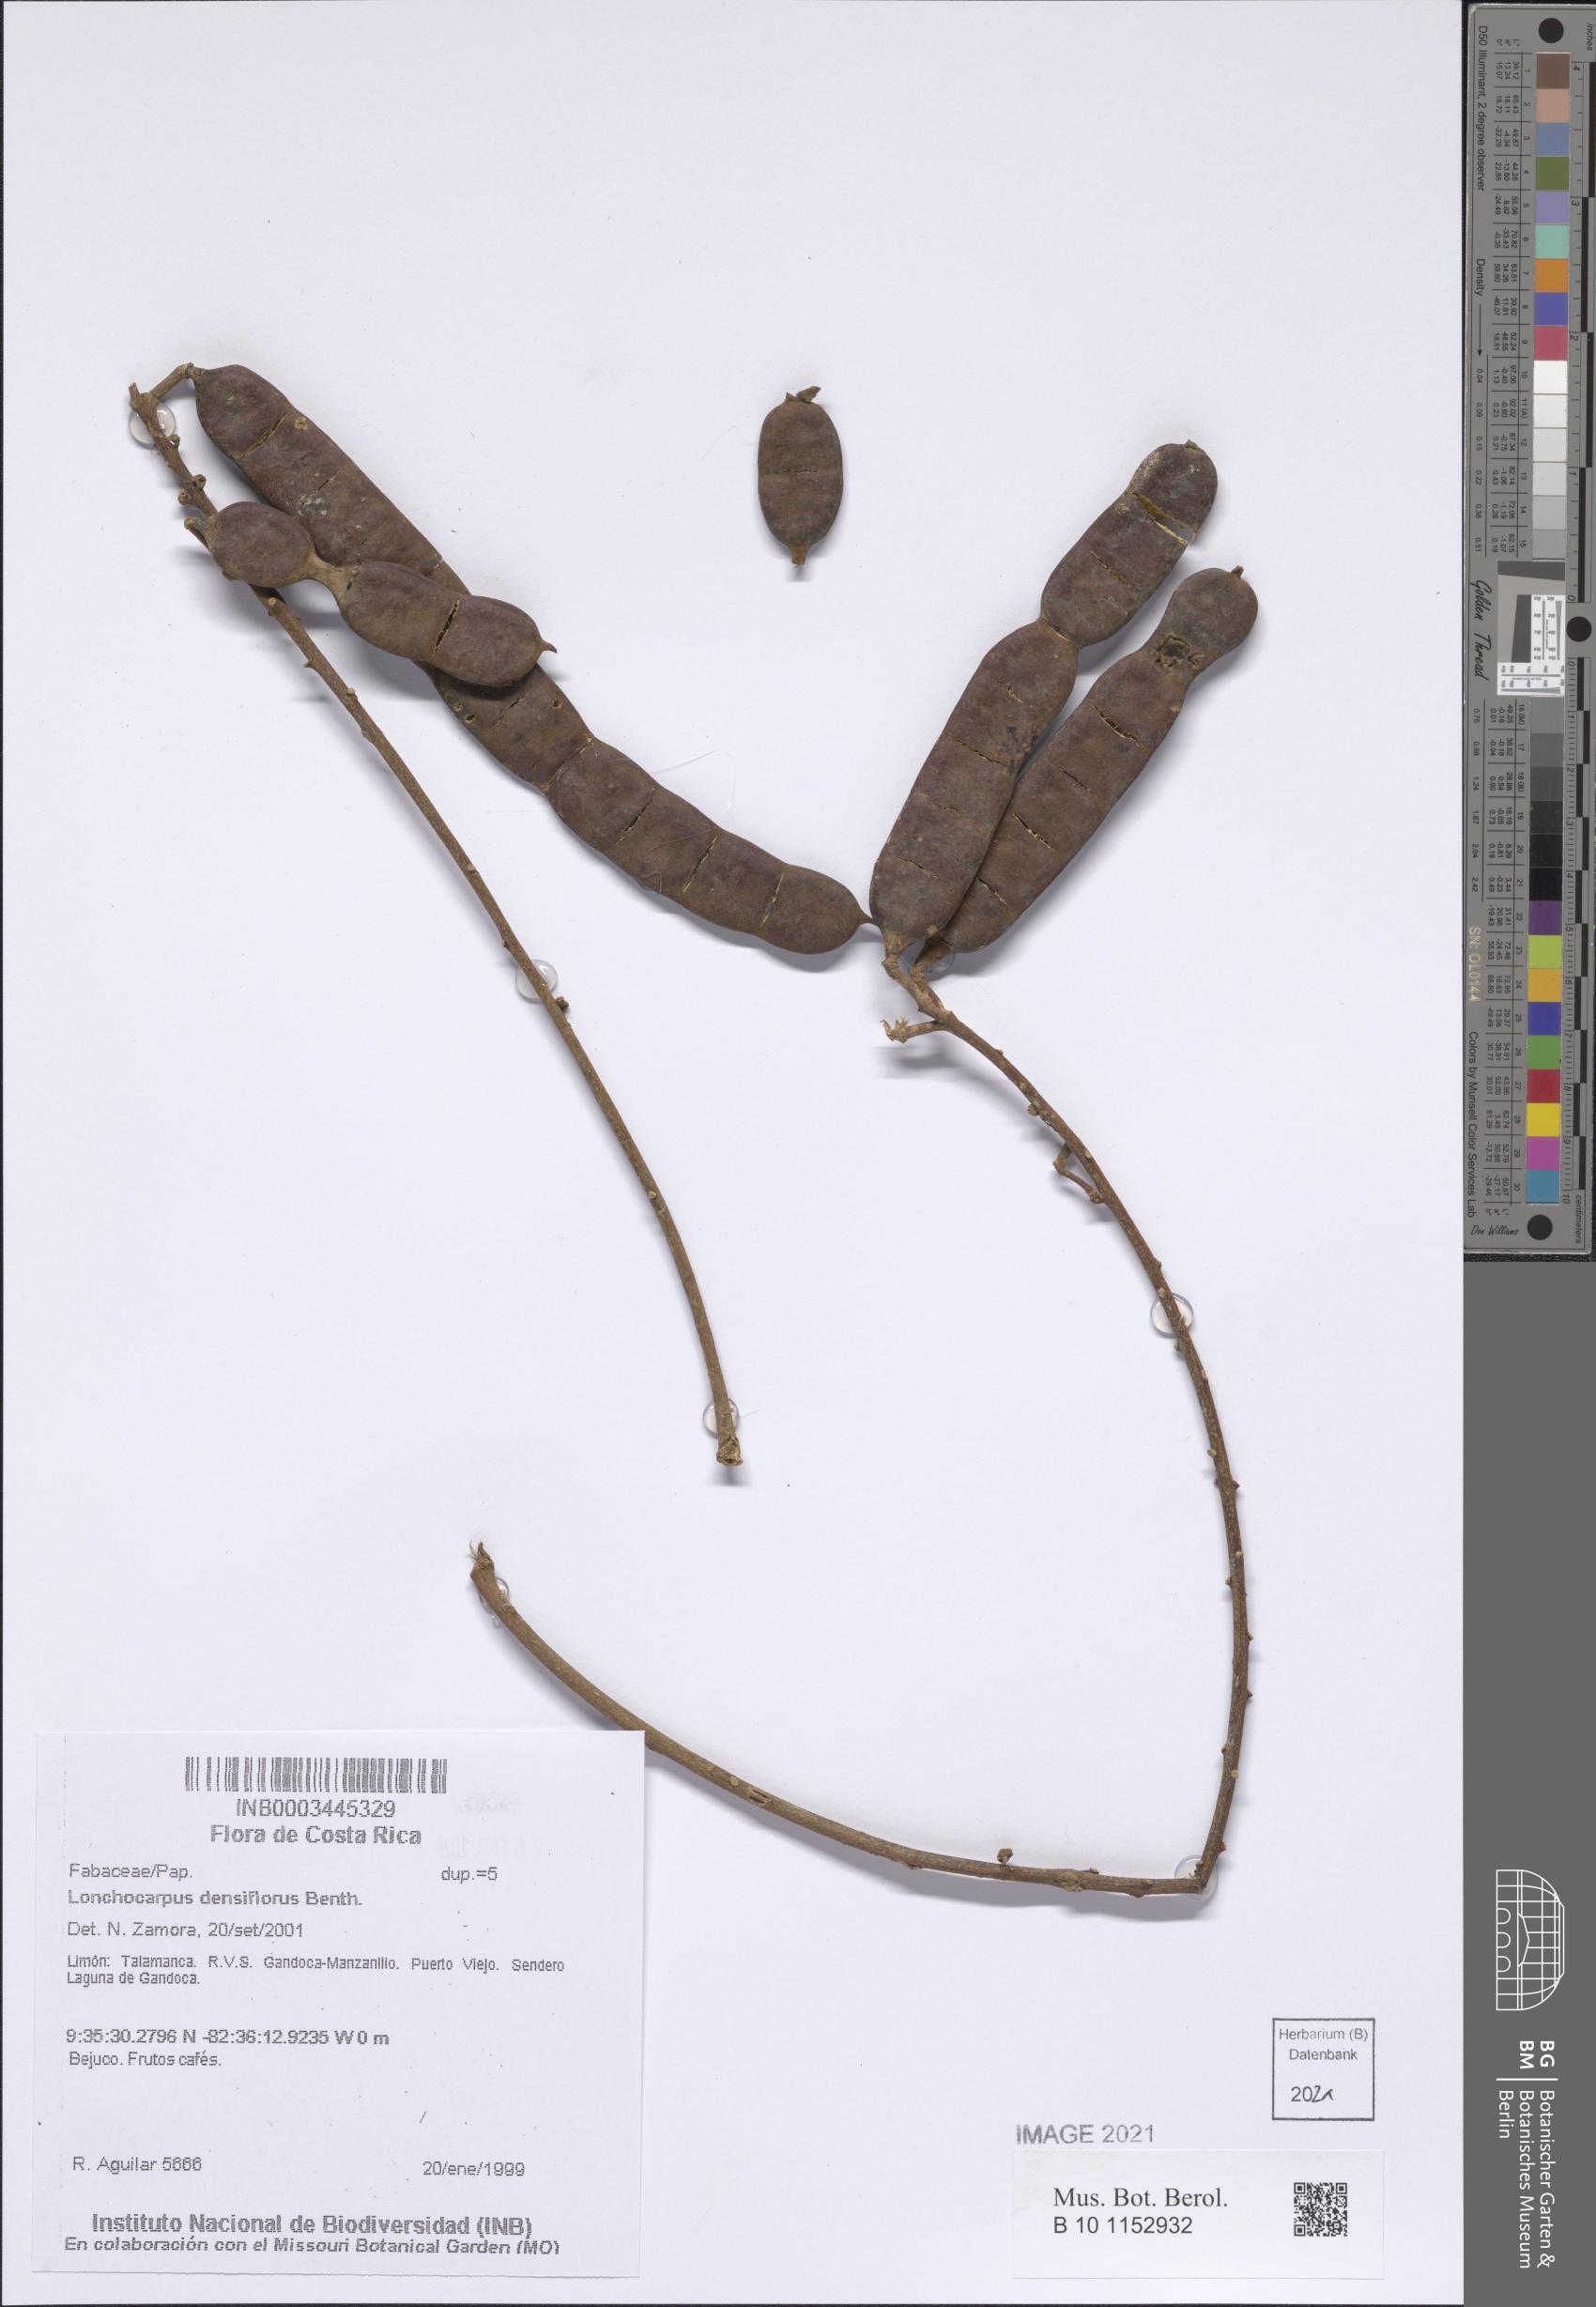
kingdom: Plantae
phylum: Tracheophyta
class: Magnoliopsida
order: Fabales
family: Fabaceae
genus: Deguelia
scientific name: Deguelia densiflora
